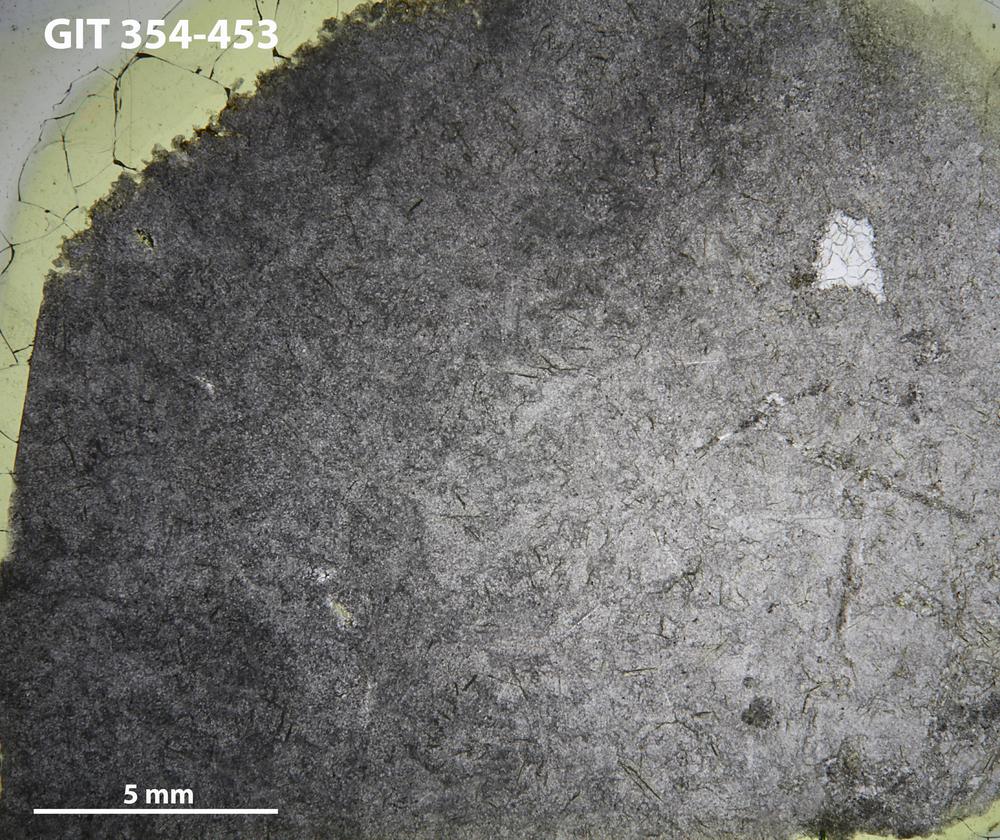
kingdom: Animalia
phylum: Porifera
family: Clathrodictyidae
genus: Clathrodictyon
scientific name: Clathrodictyon delicatulum
